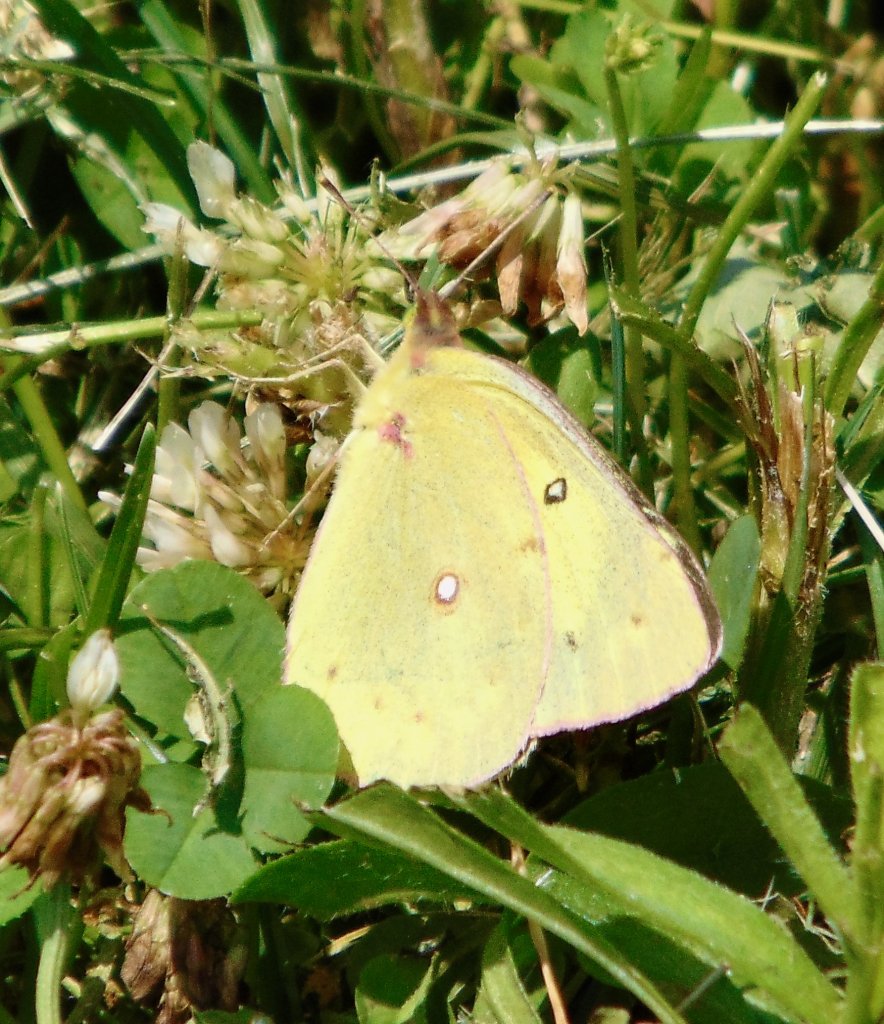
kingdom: Animalia
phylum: Arthropoda
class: Insecta
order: Lepidoptera
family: Pieridae
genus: Colias
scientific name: Colias philodice
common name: Clouded Sulphur
